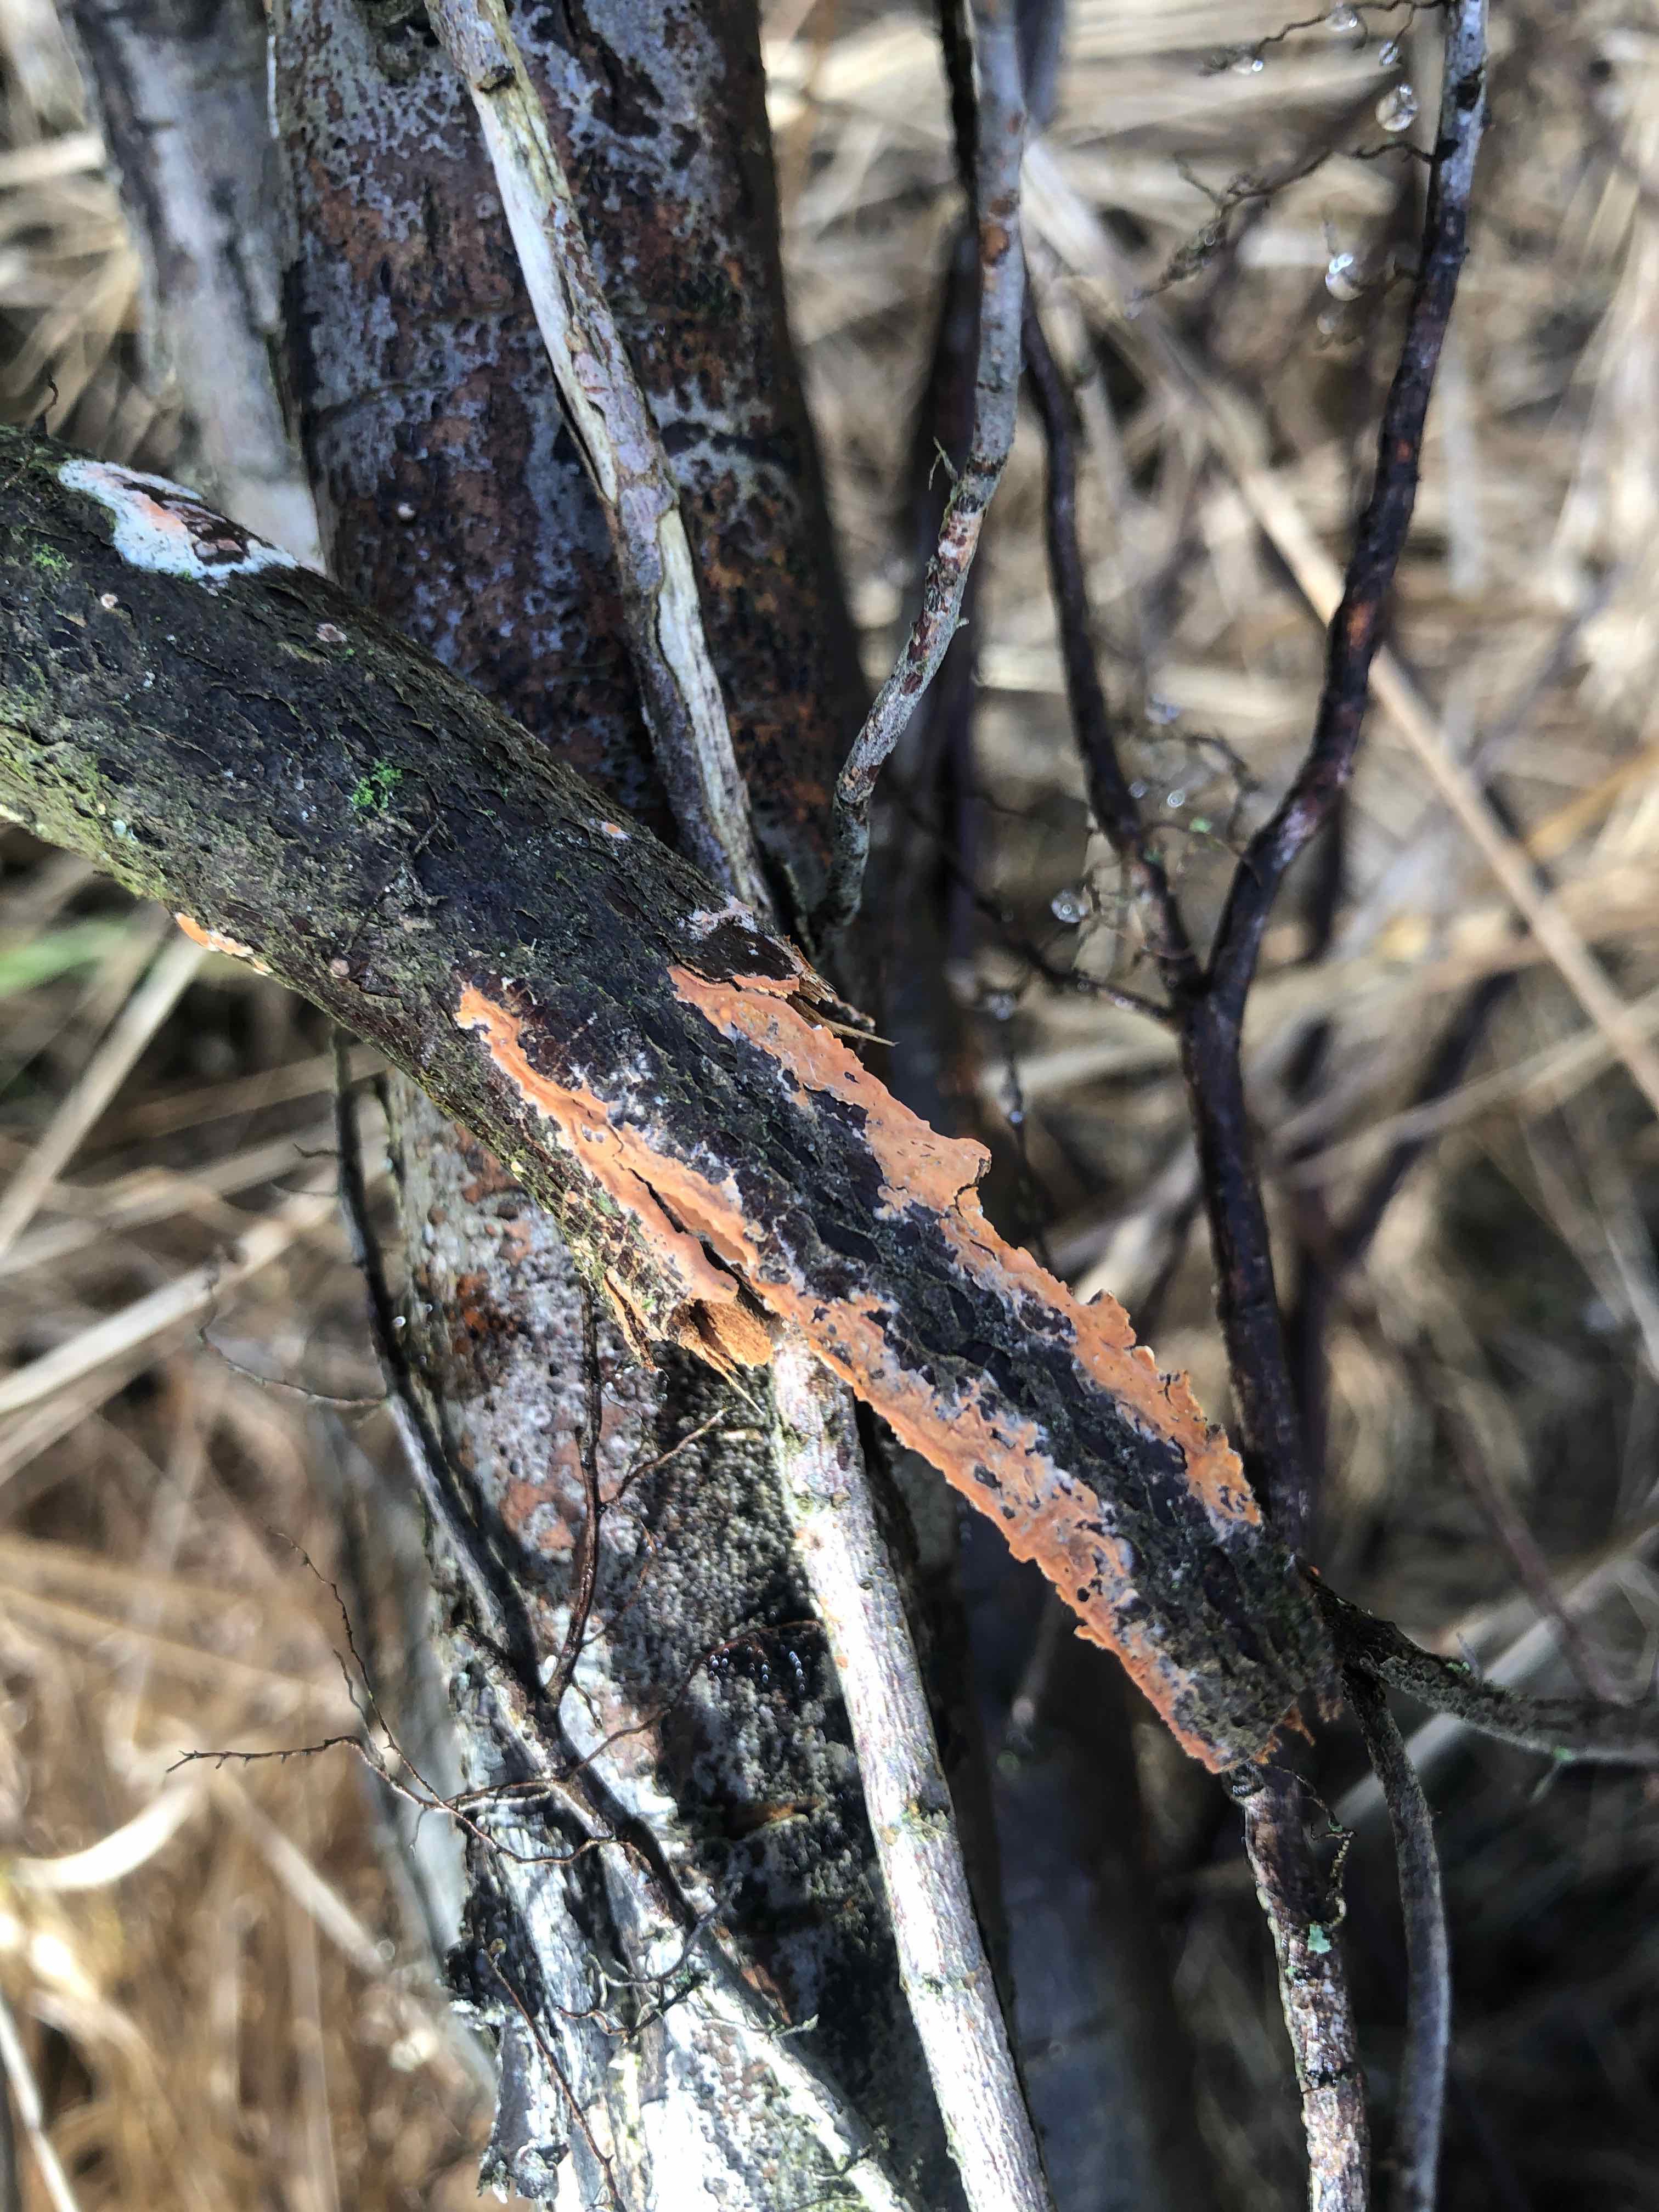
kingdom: Fungi
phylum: Basidiomycota
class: Agaricomycetes
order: Russulales
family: Peniophoraceae
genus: Peniophora
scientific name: Peniophora incarnata
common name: laksefarvet voksskind
